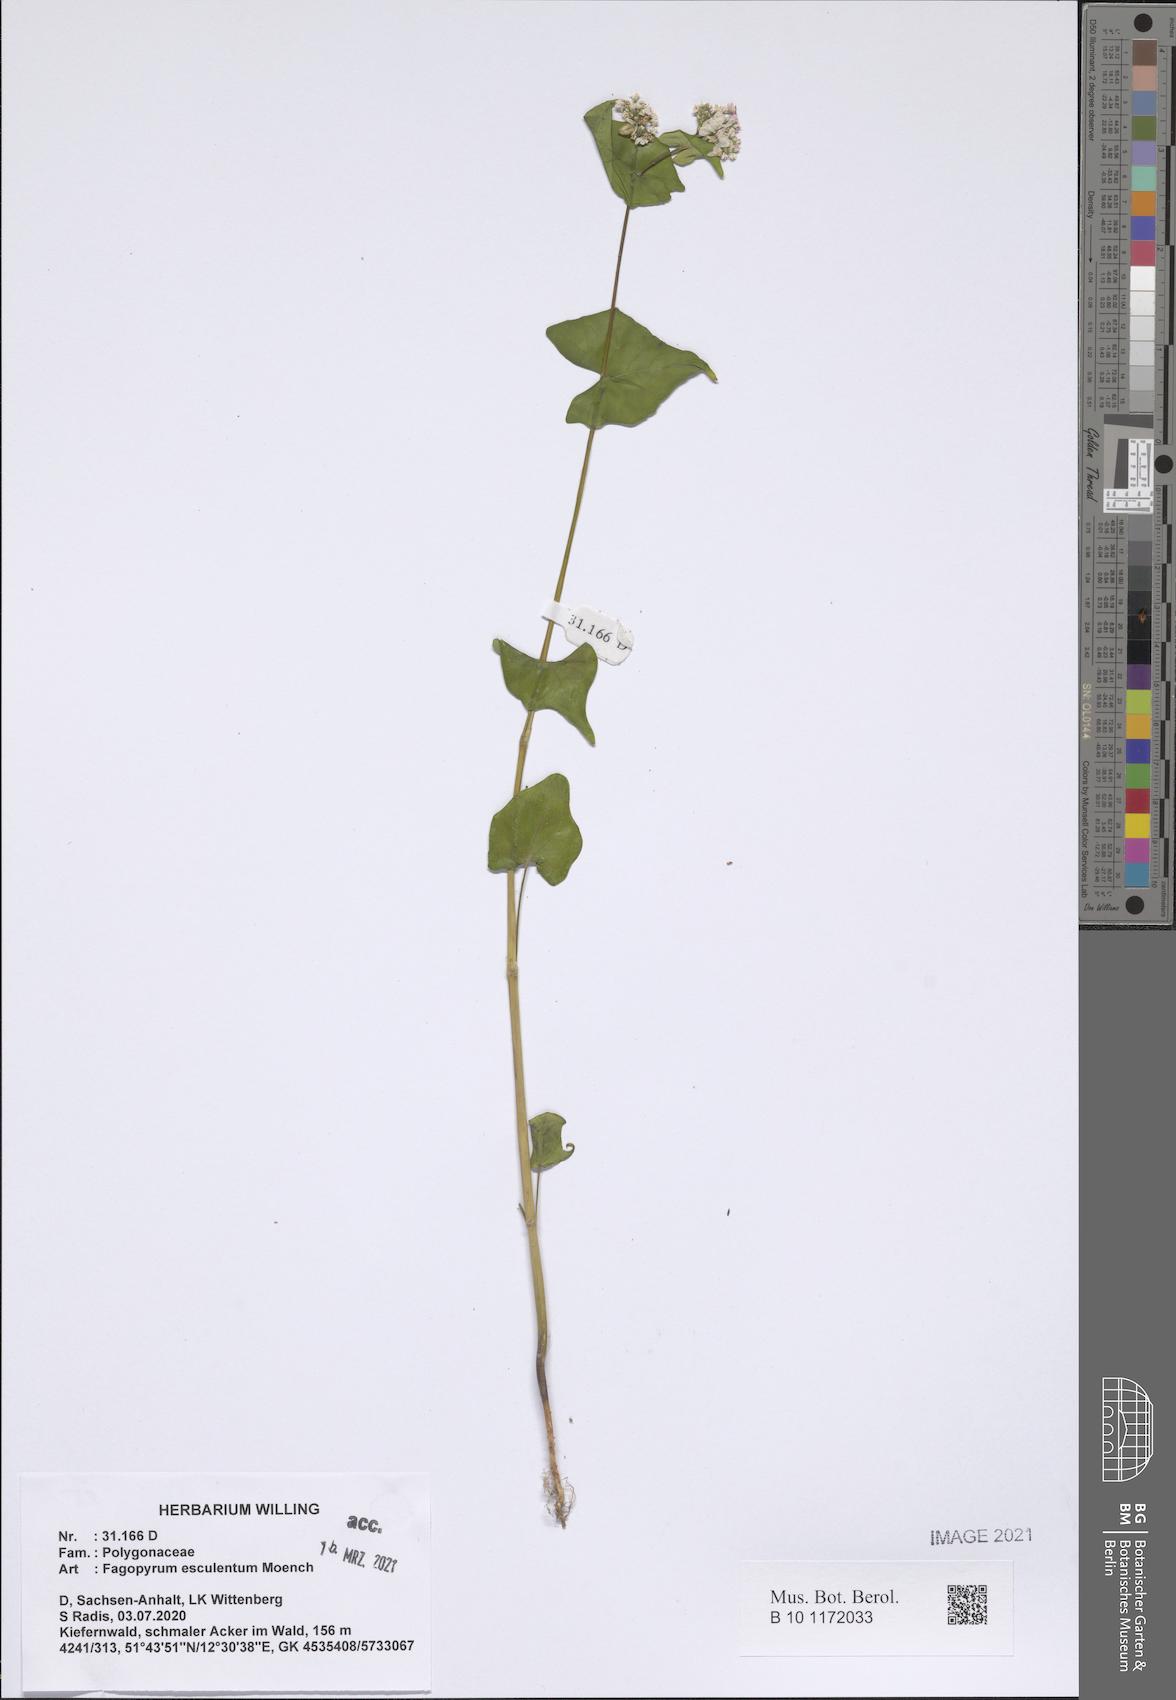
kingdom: Plantae
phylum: Tracheophyta
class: Magnoliopsida
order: Caryophyllales
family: Polygonaceae
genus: Fagopyrum
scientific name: Fagopyrum esculentum
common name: Buckwheat
